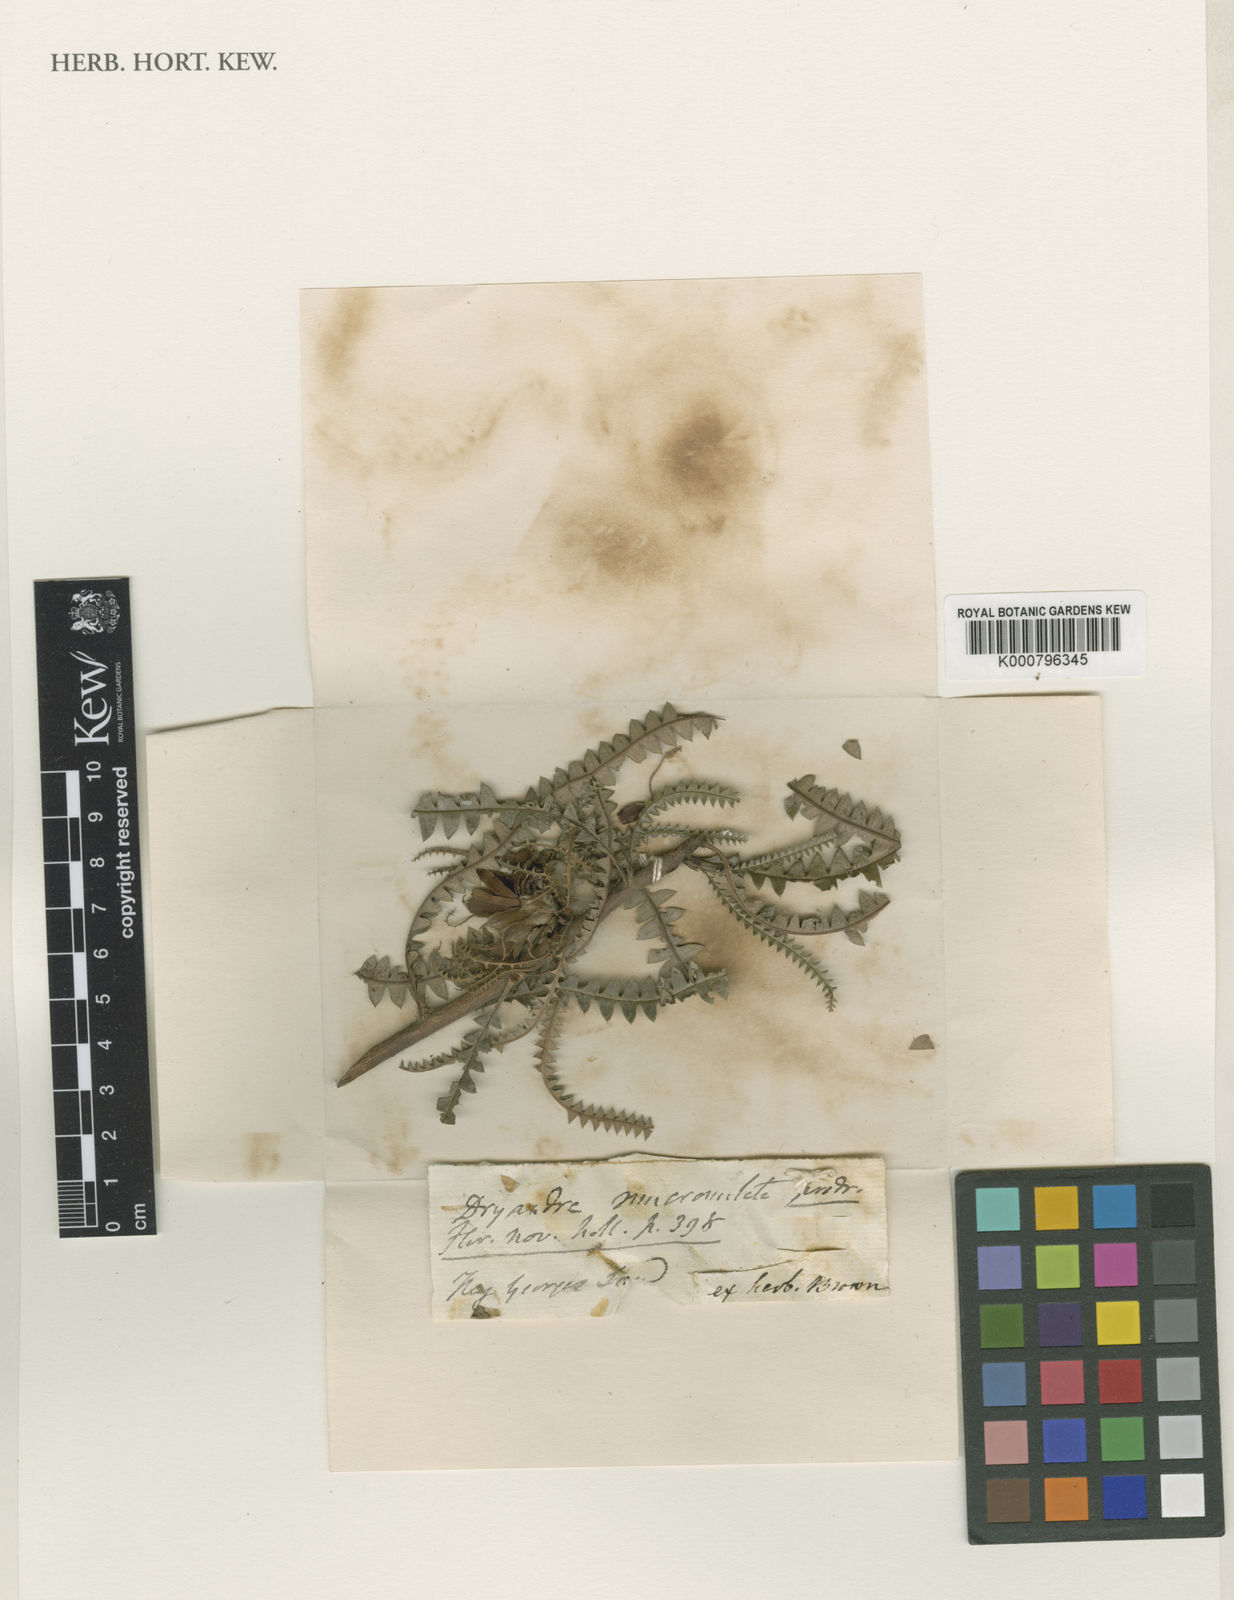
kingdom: Plantae
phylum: Tracheophyta
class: Magnoliopsida
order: Proteales
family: Proteaceae
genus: Banksia
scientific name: Banksia mucronulata
